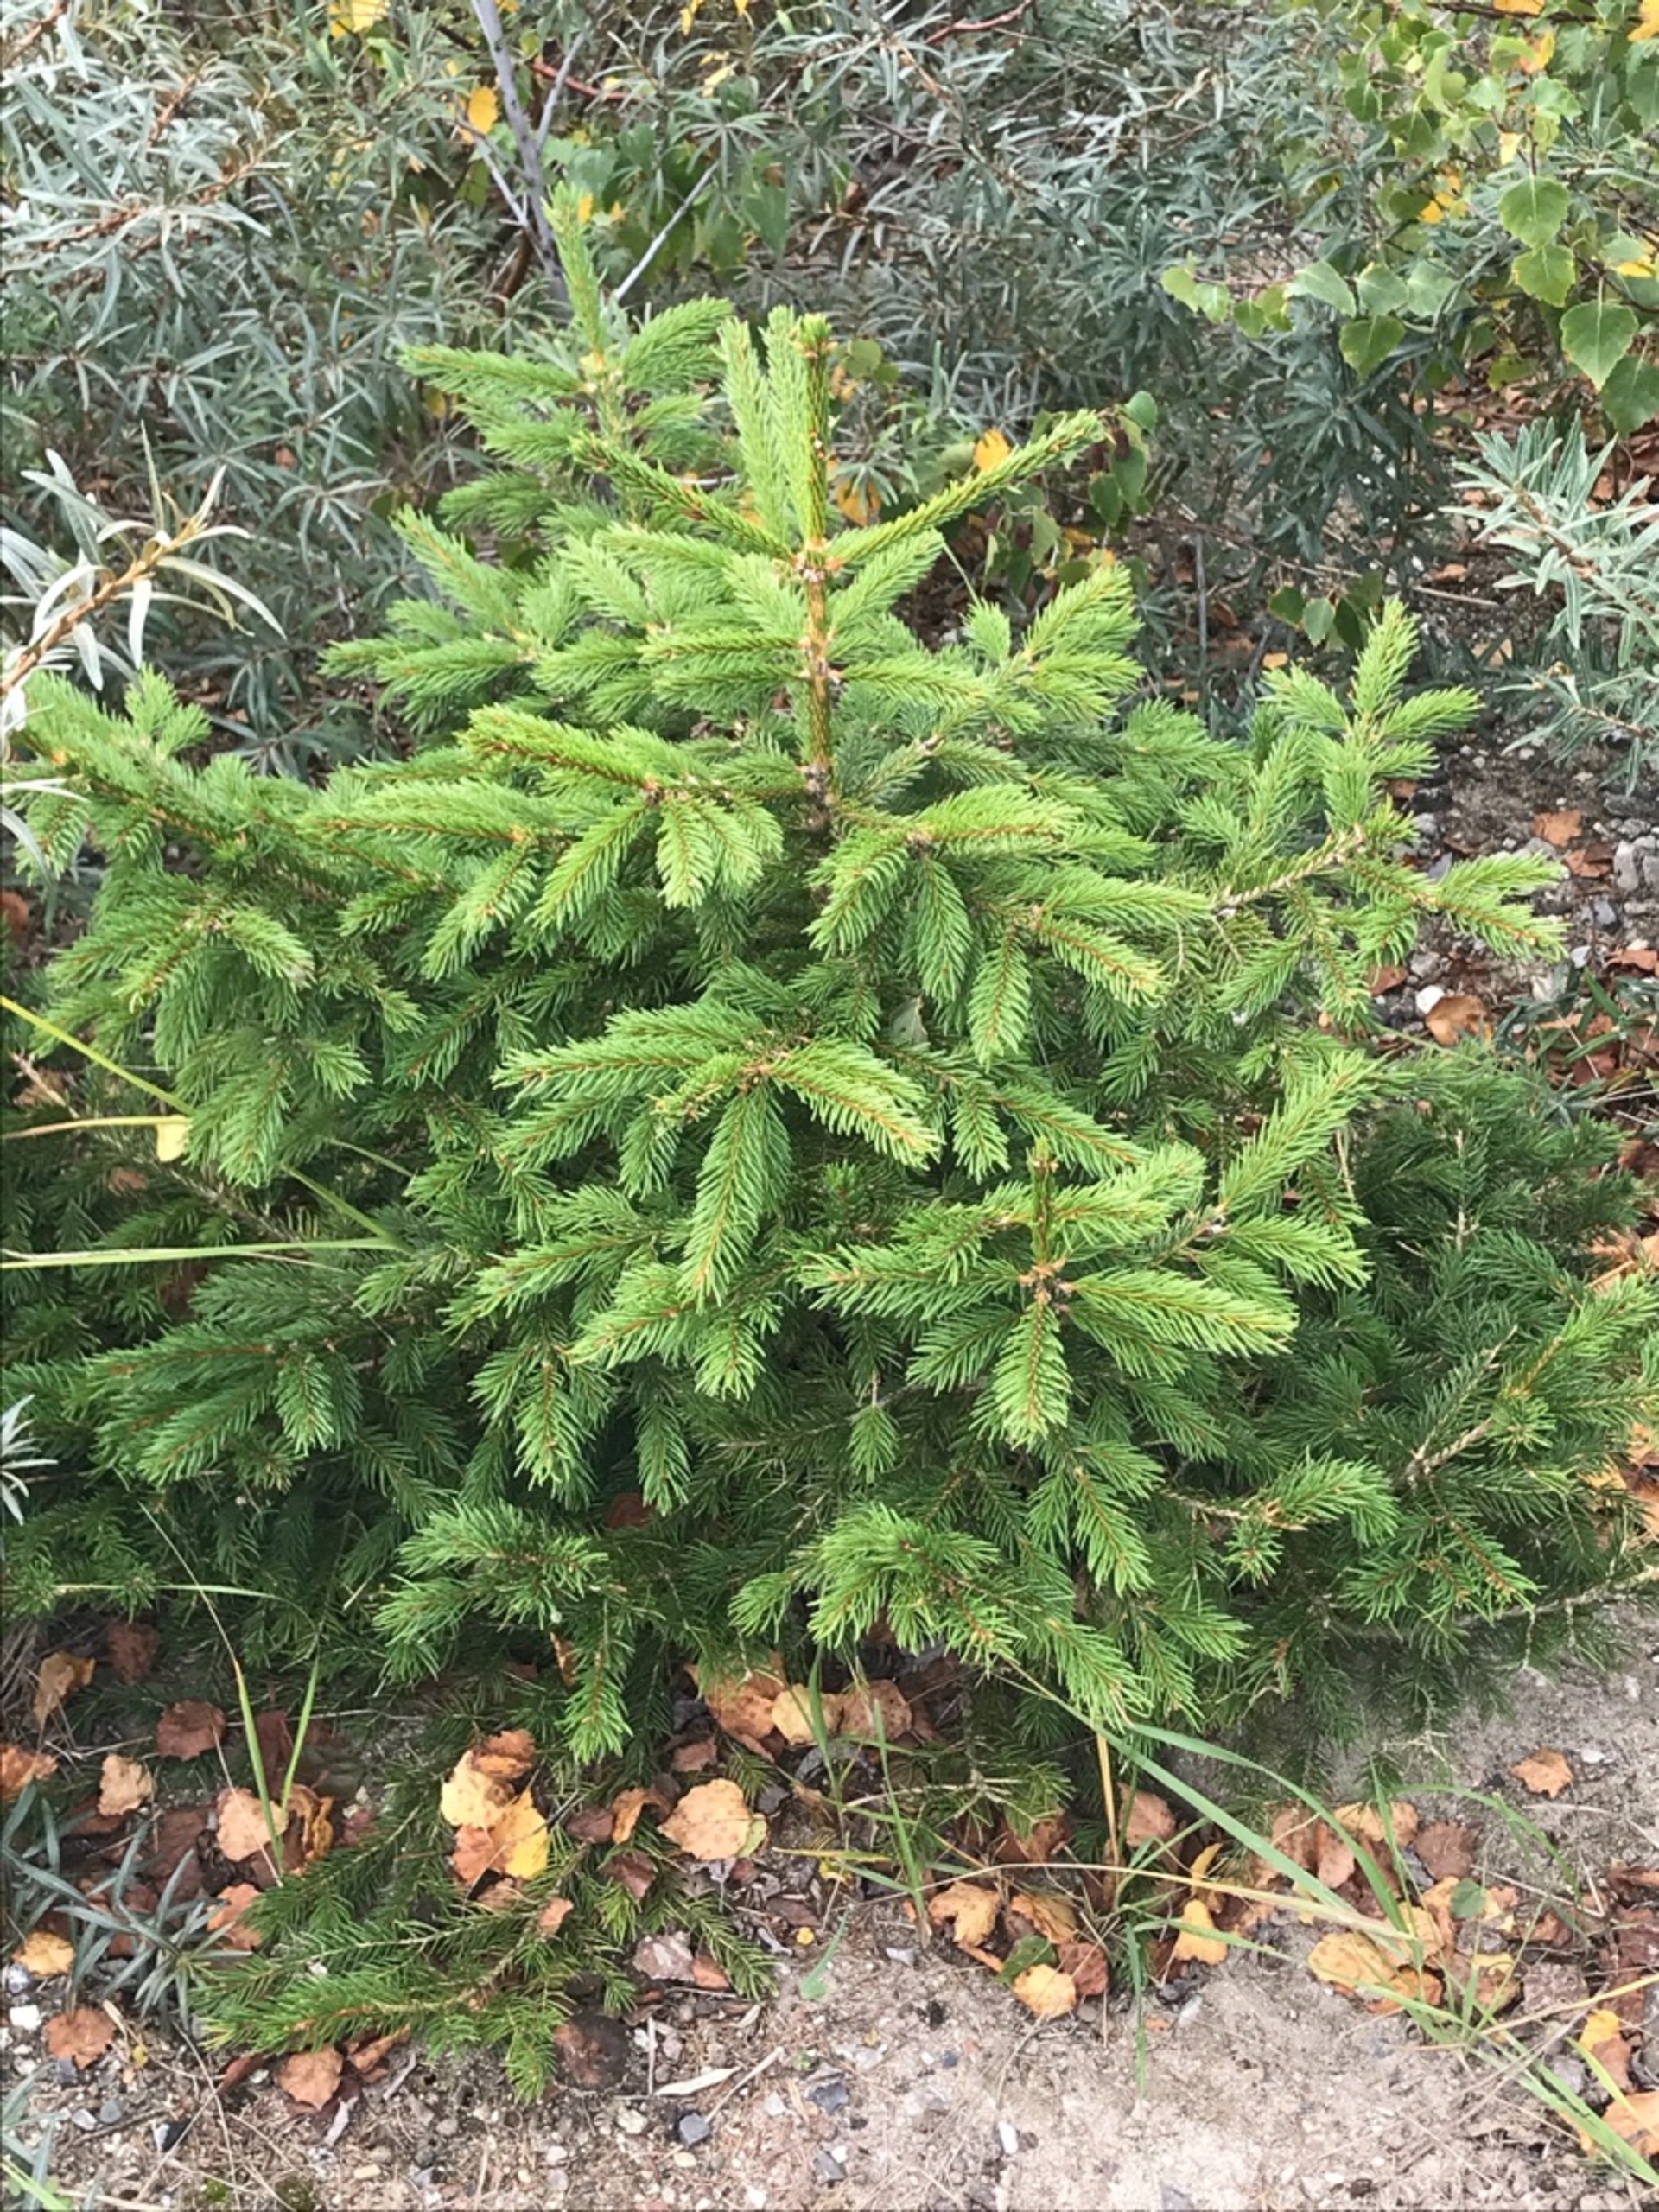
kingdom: Plantae
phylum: Tracheophyta
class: Pinopsida
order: Pinales
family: Pinaceae
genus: Picea
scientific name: Picea abies
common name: Rød-gran
